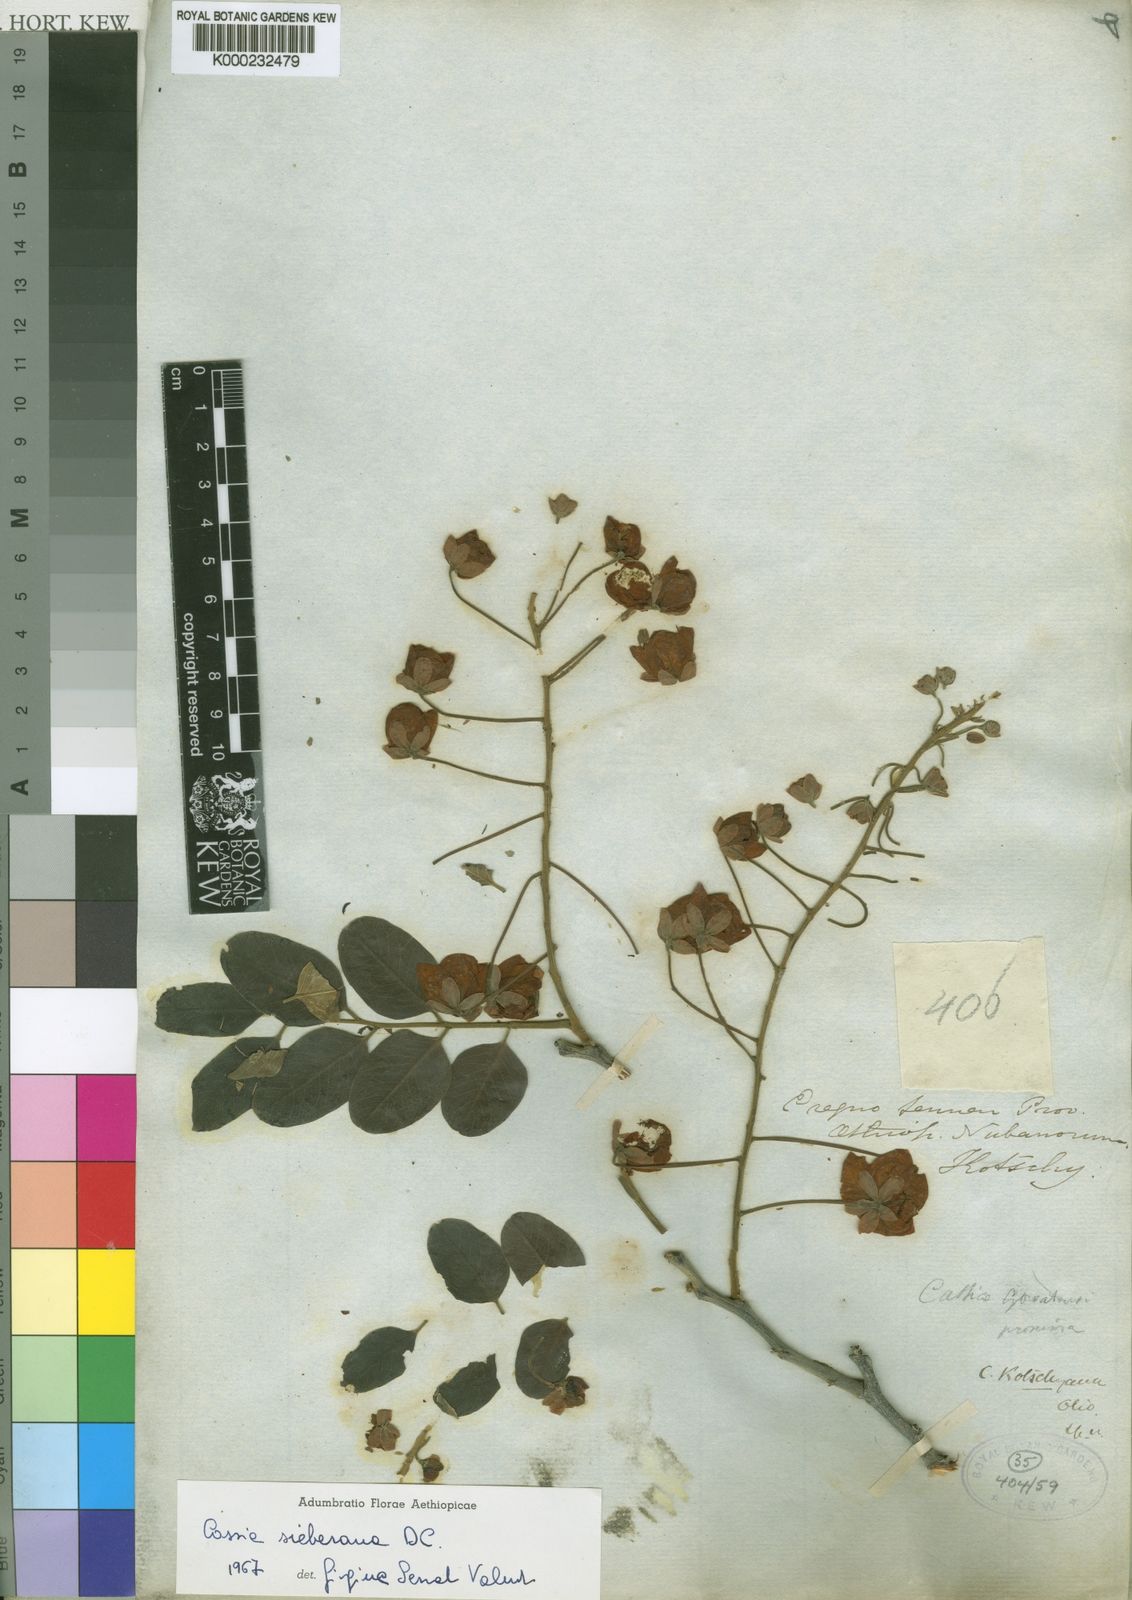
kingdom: Plantae
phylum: Tracheophyta
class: Magnoliopsida
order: Fabales
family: Fabaceae
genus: Cassia
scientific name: Cassia sieberiana
